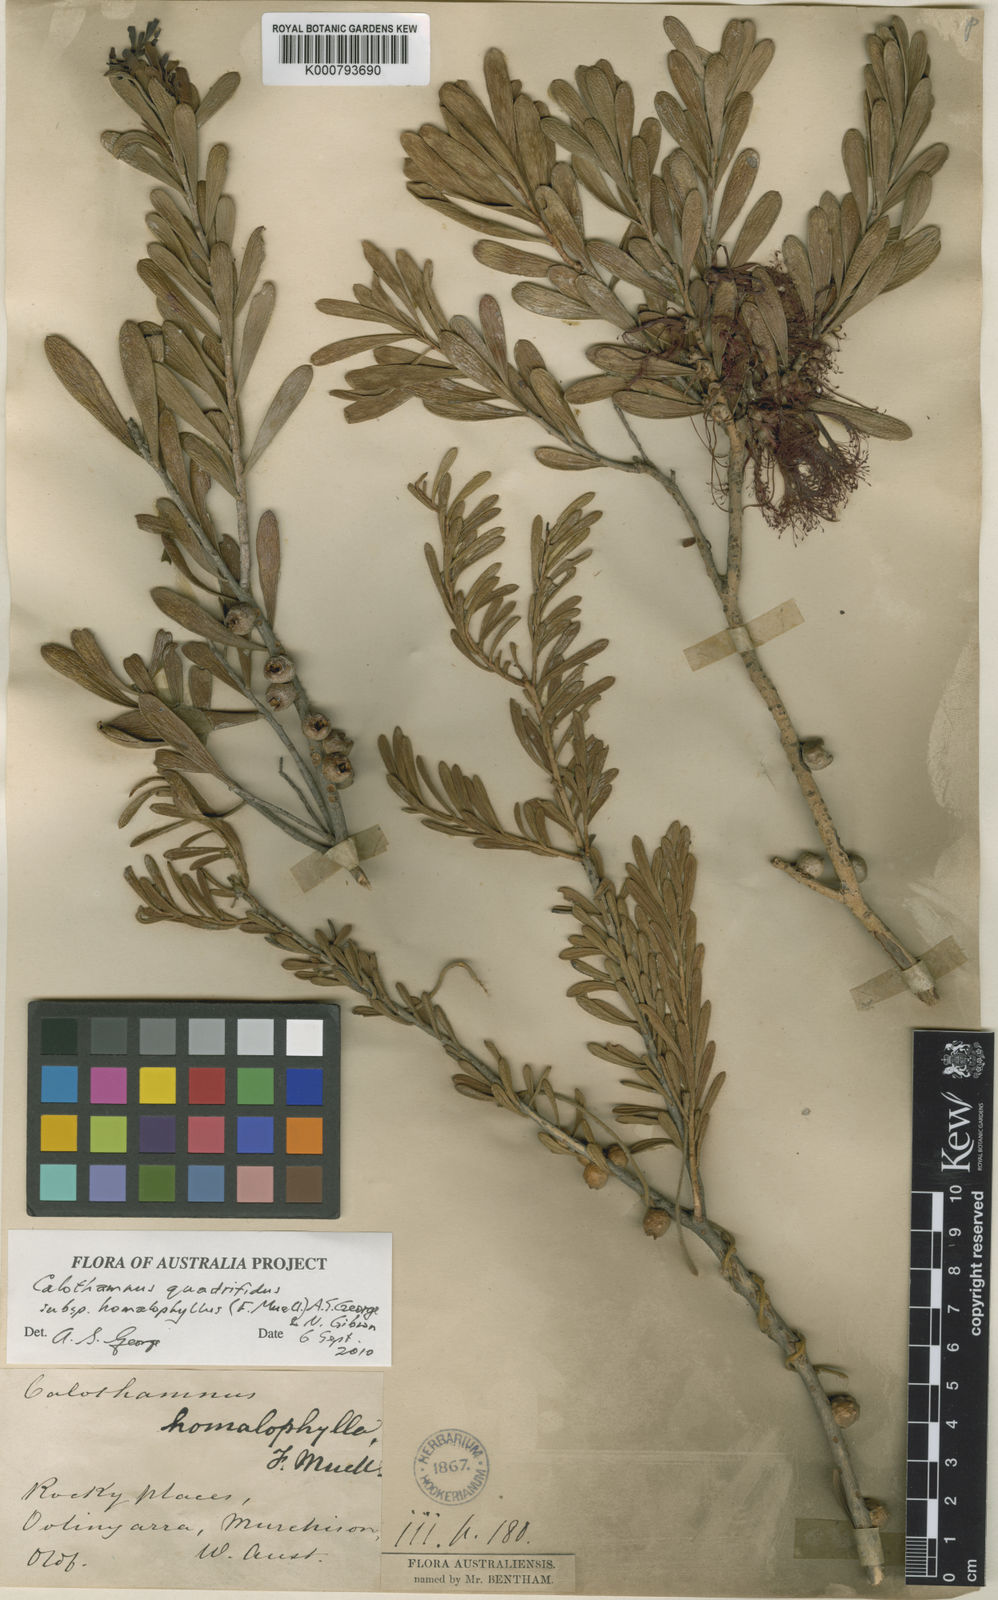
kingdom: Plantae
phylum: Tracheophyta
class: Magnoliopsida
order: Myrtales
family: Myrtaceae
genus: Melaleuca
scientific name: Melaleuca quadrifida
